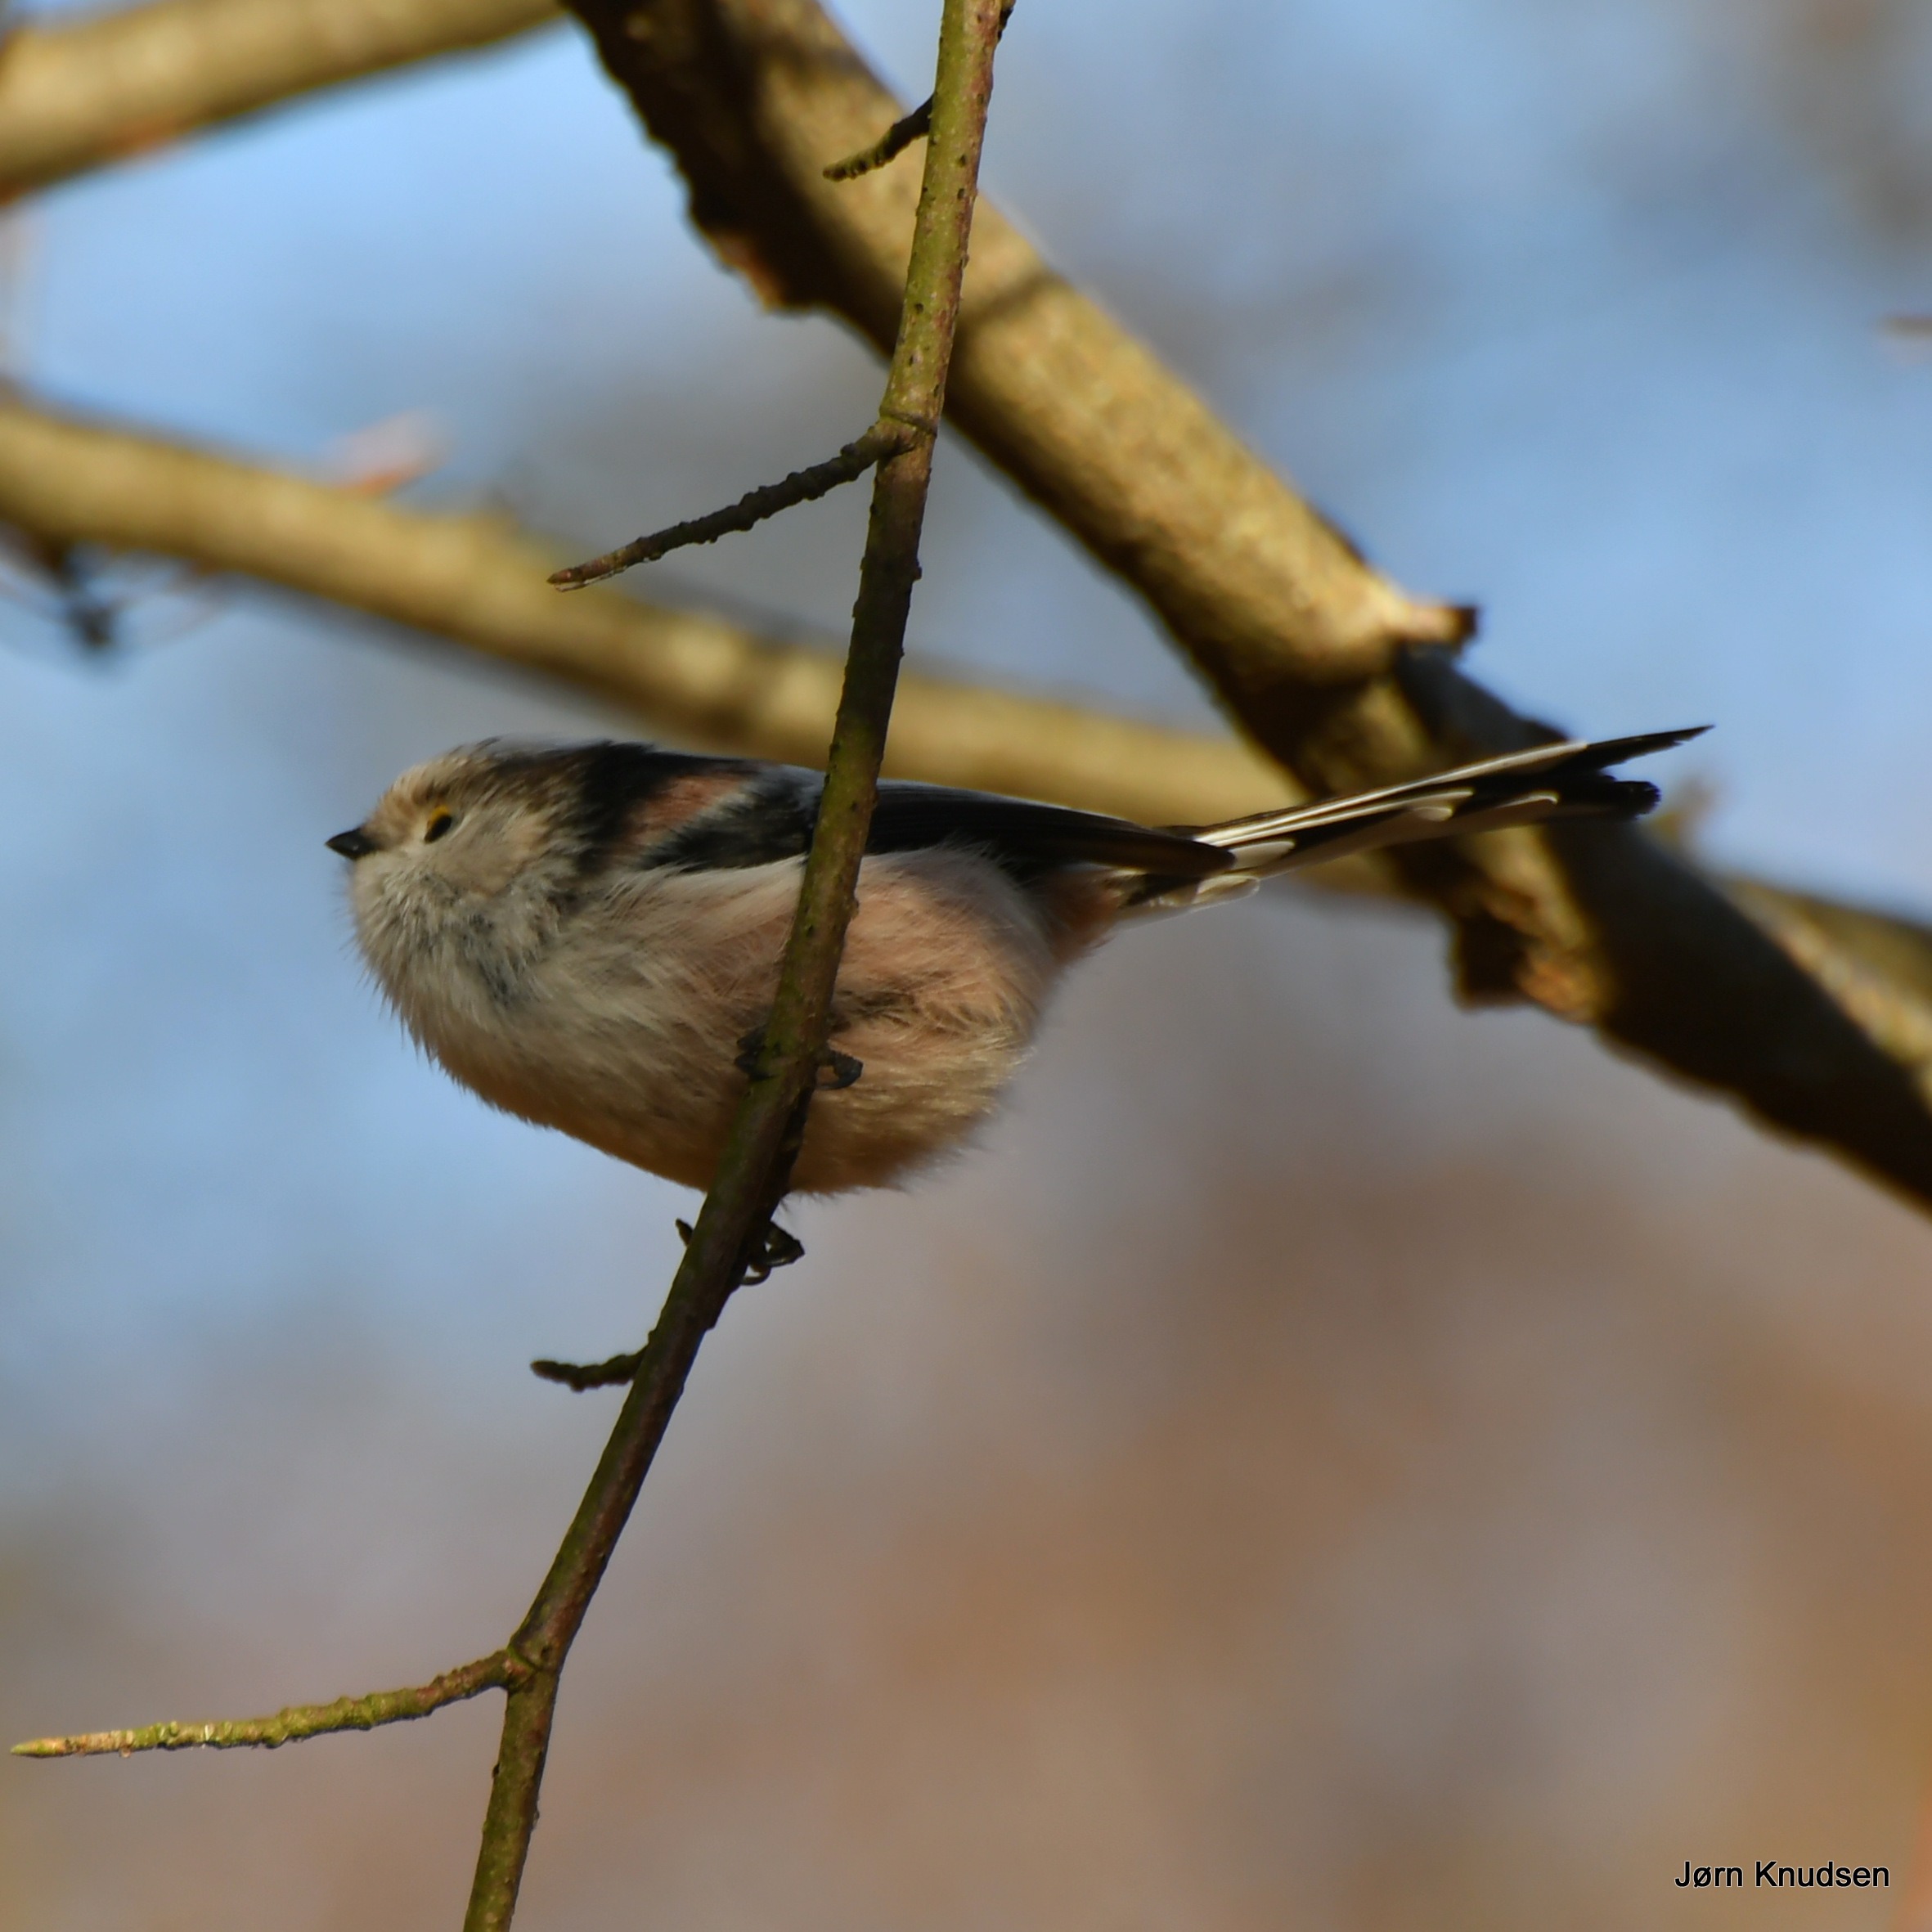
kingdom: Animalia
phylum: Chordata
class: Aves
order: Passeriformes
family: Aegithalidae
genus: Aegithalos
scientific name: Aegithalos caudatus
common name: Halemejse
